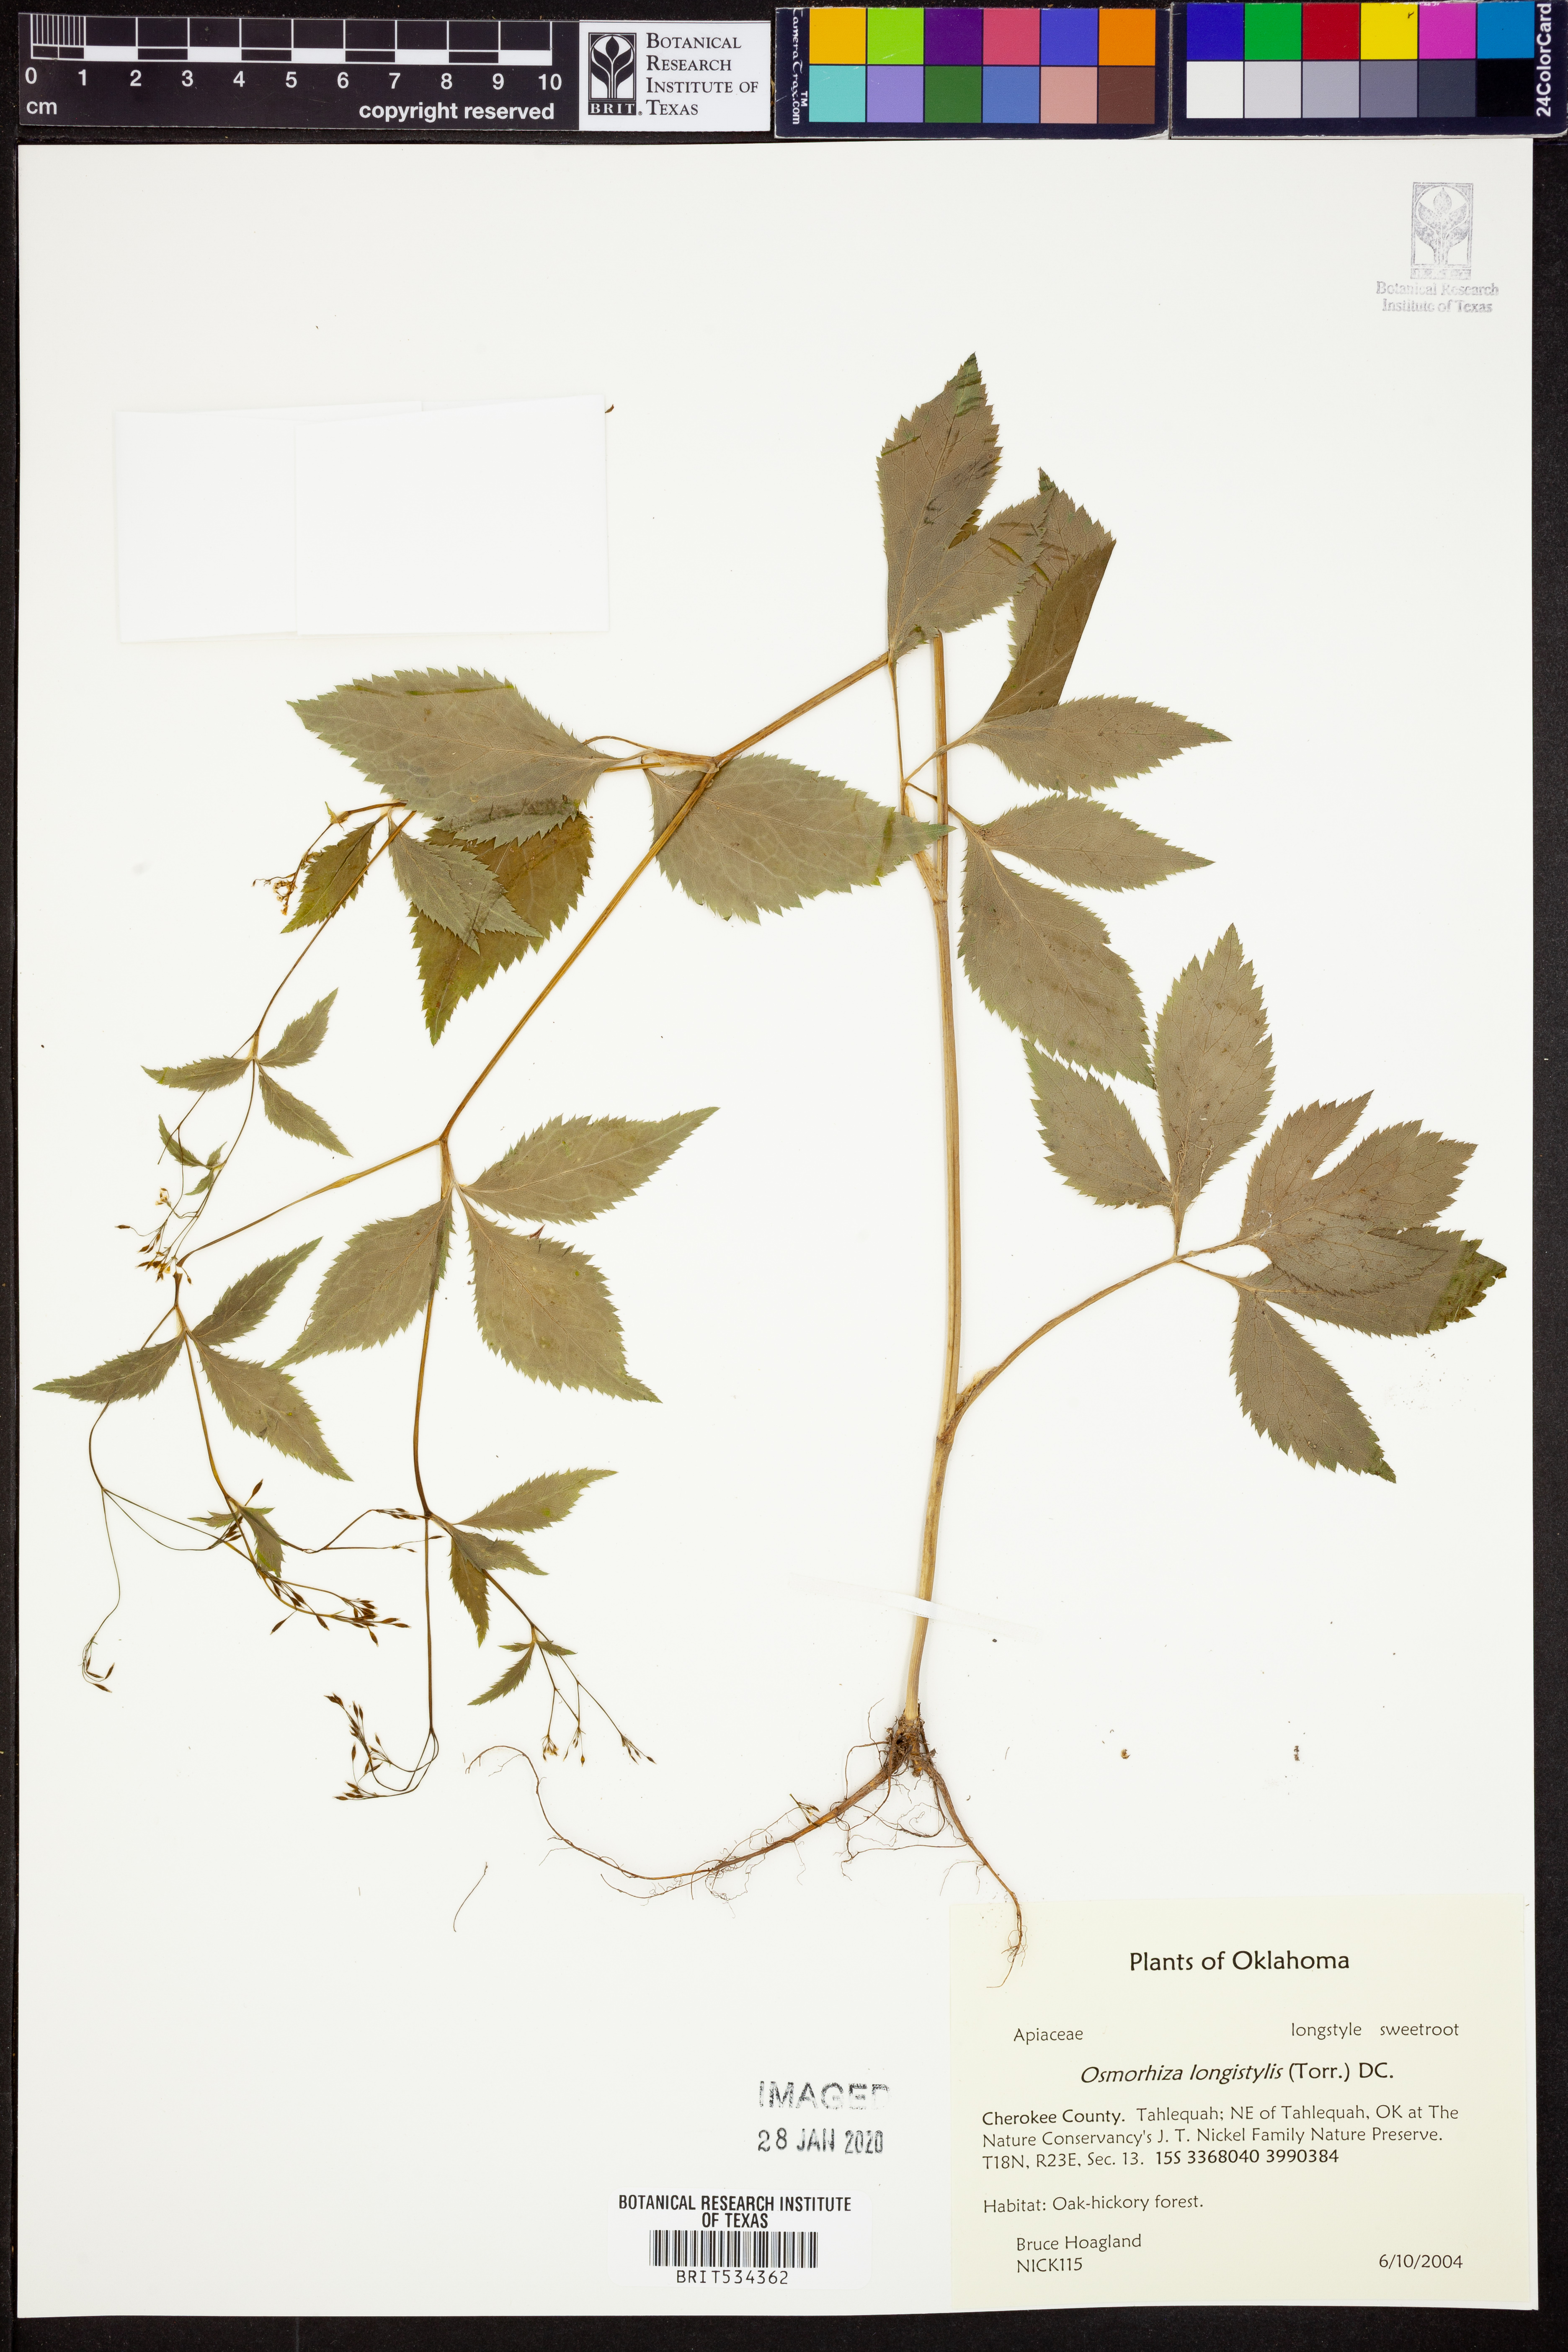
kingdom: Plantae
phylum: Tracheophyta
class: Magnoliopsida
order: Apiales
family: Apiaceae
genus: Osmorhiza
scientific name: Osmorhiza longistylis
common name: Smooth sweet cicely
